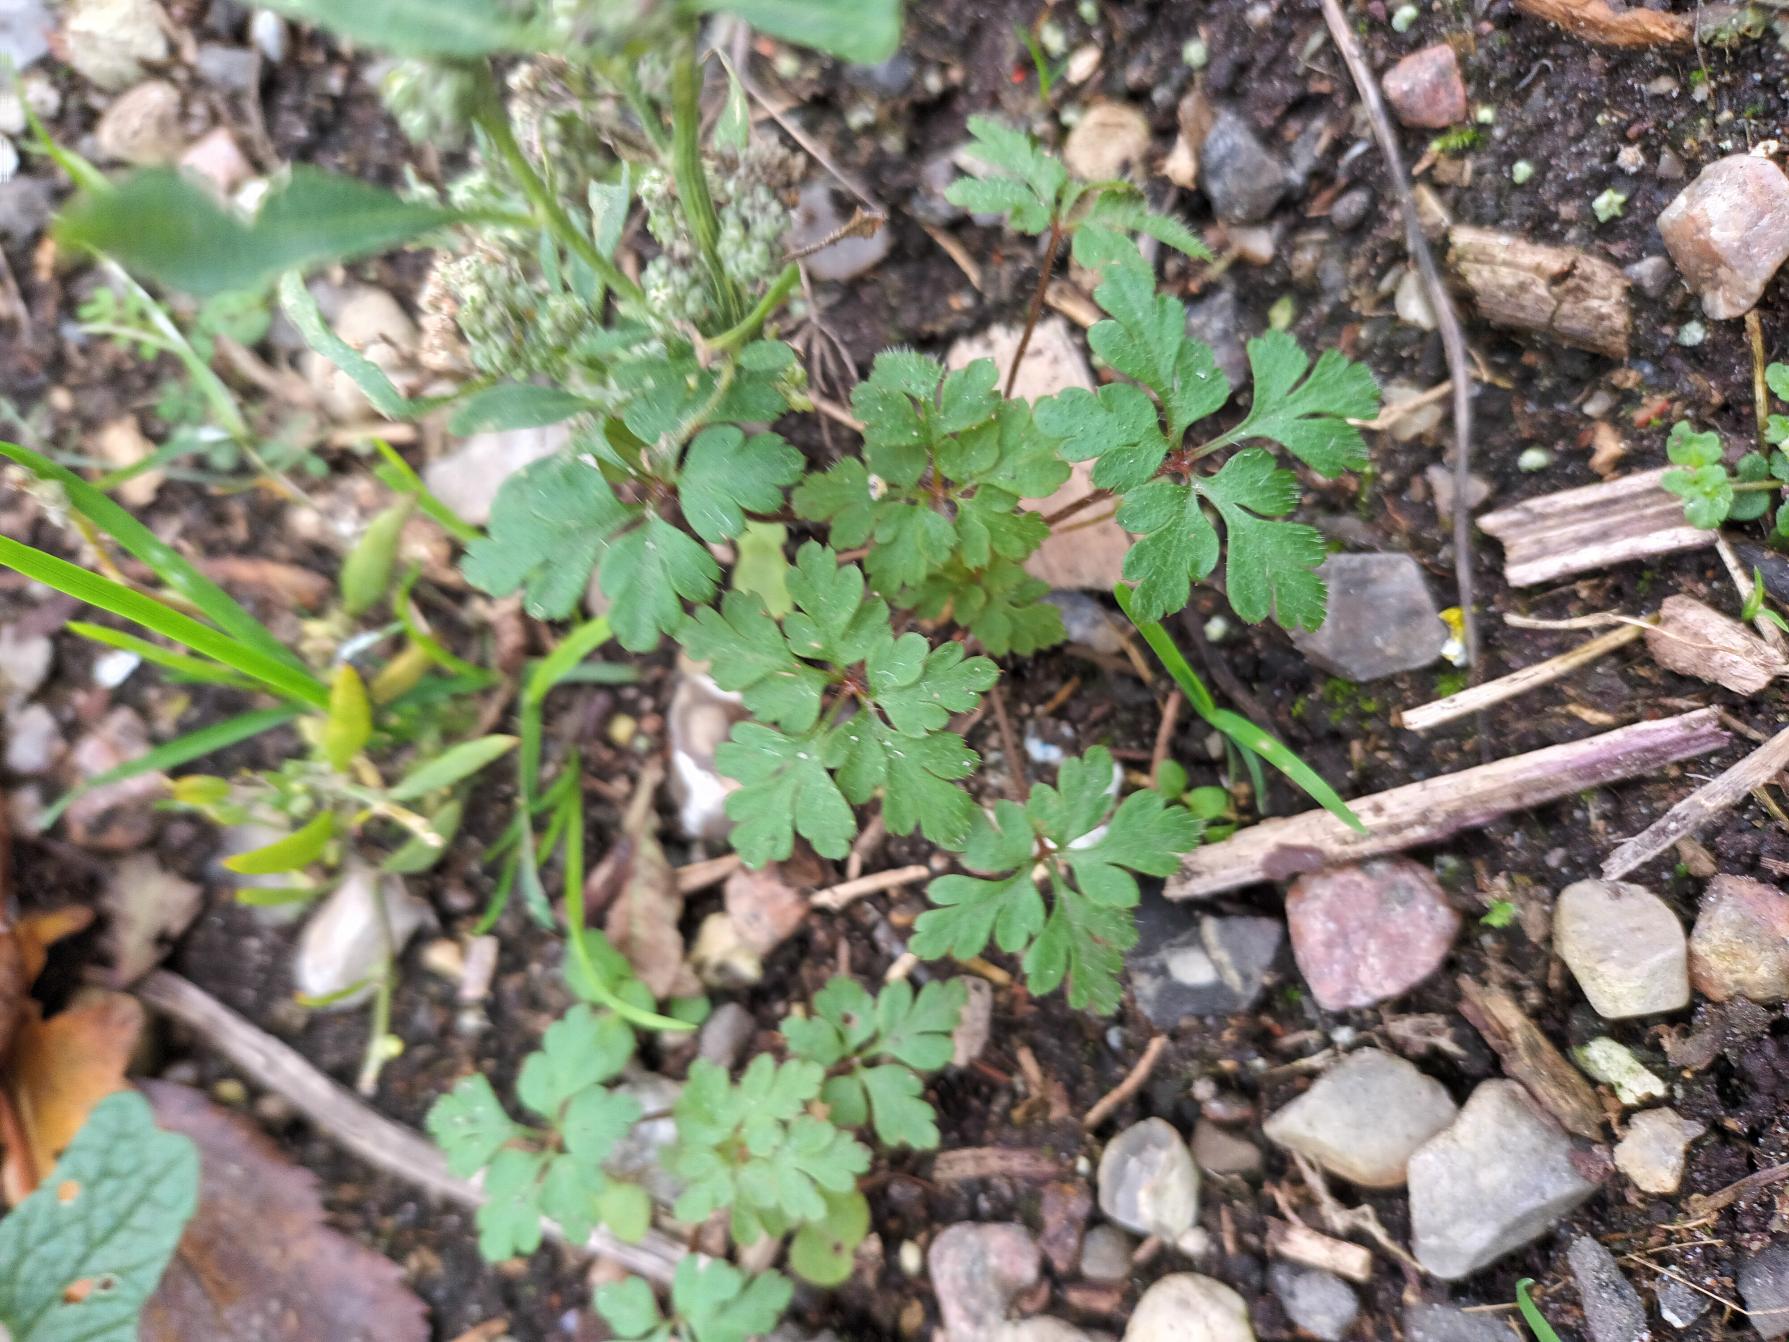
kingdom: Plantae
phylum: Tracheophyta
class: Magnoliopsida
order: Geraniales
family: Geraniaceae
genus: Geranium
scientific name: Geranium robertianum
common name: Stinkende storkenæb
